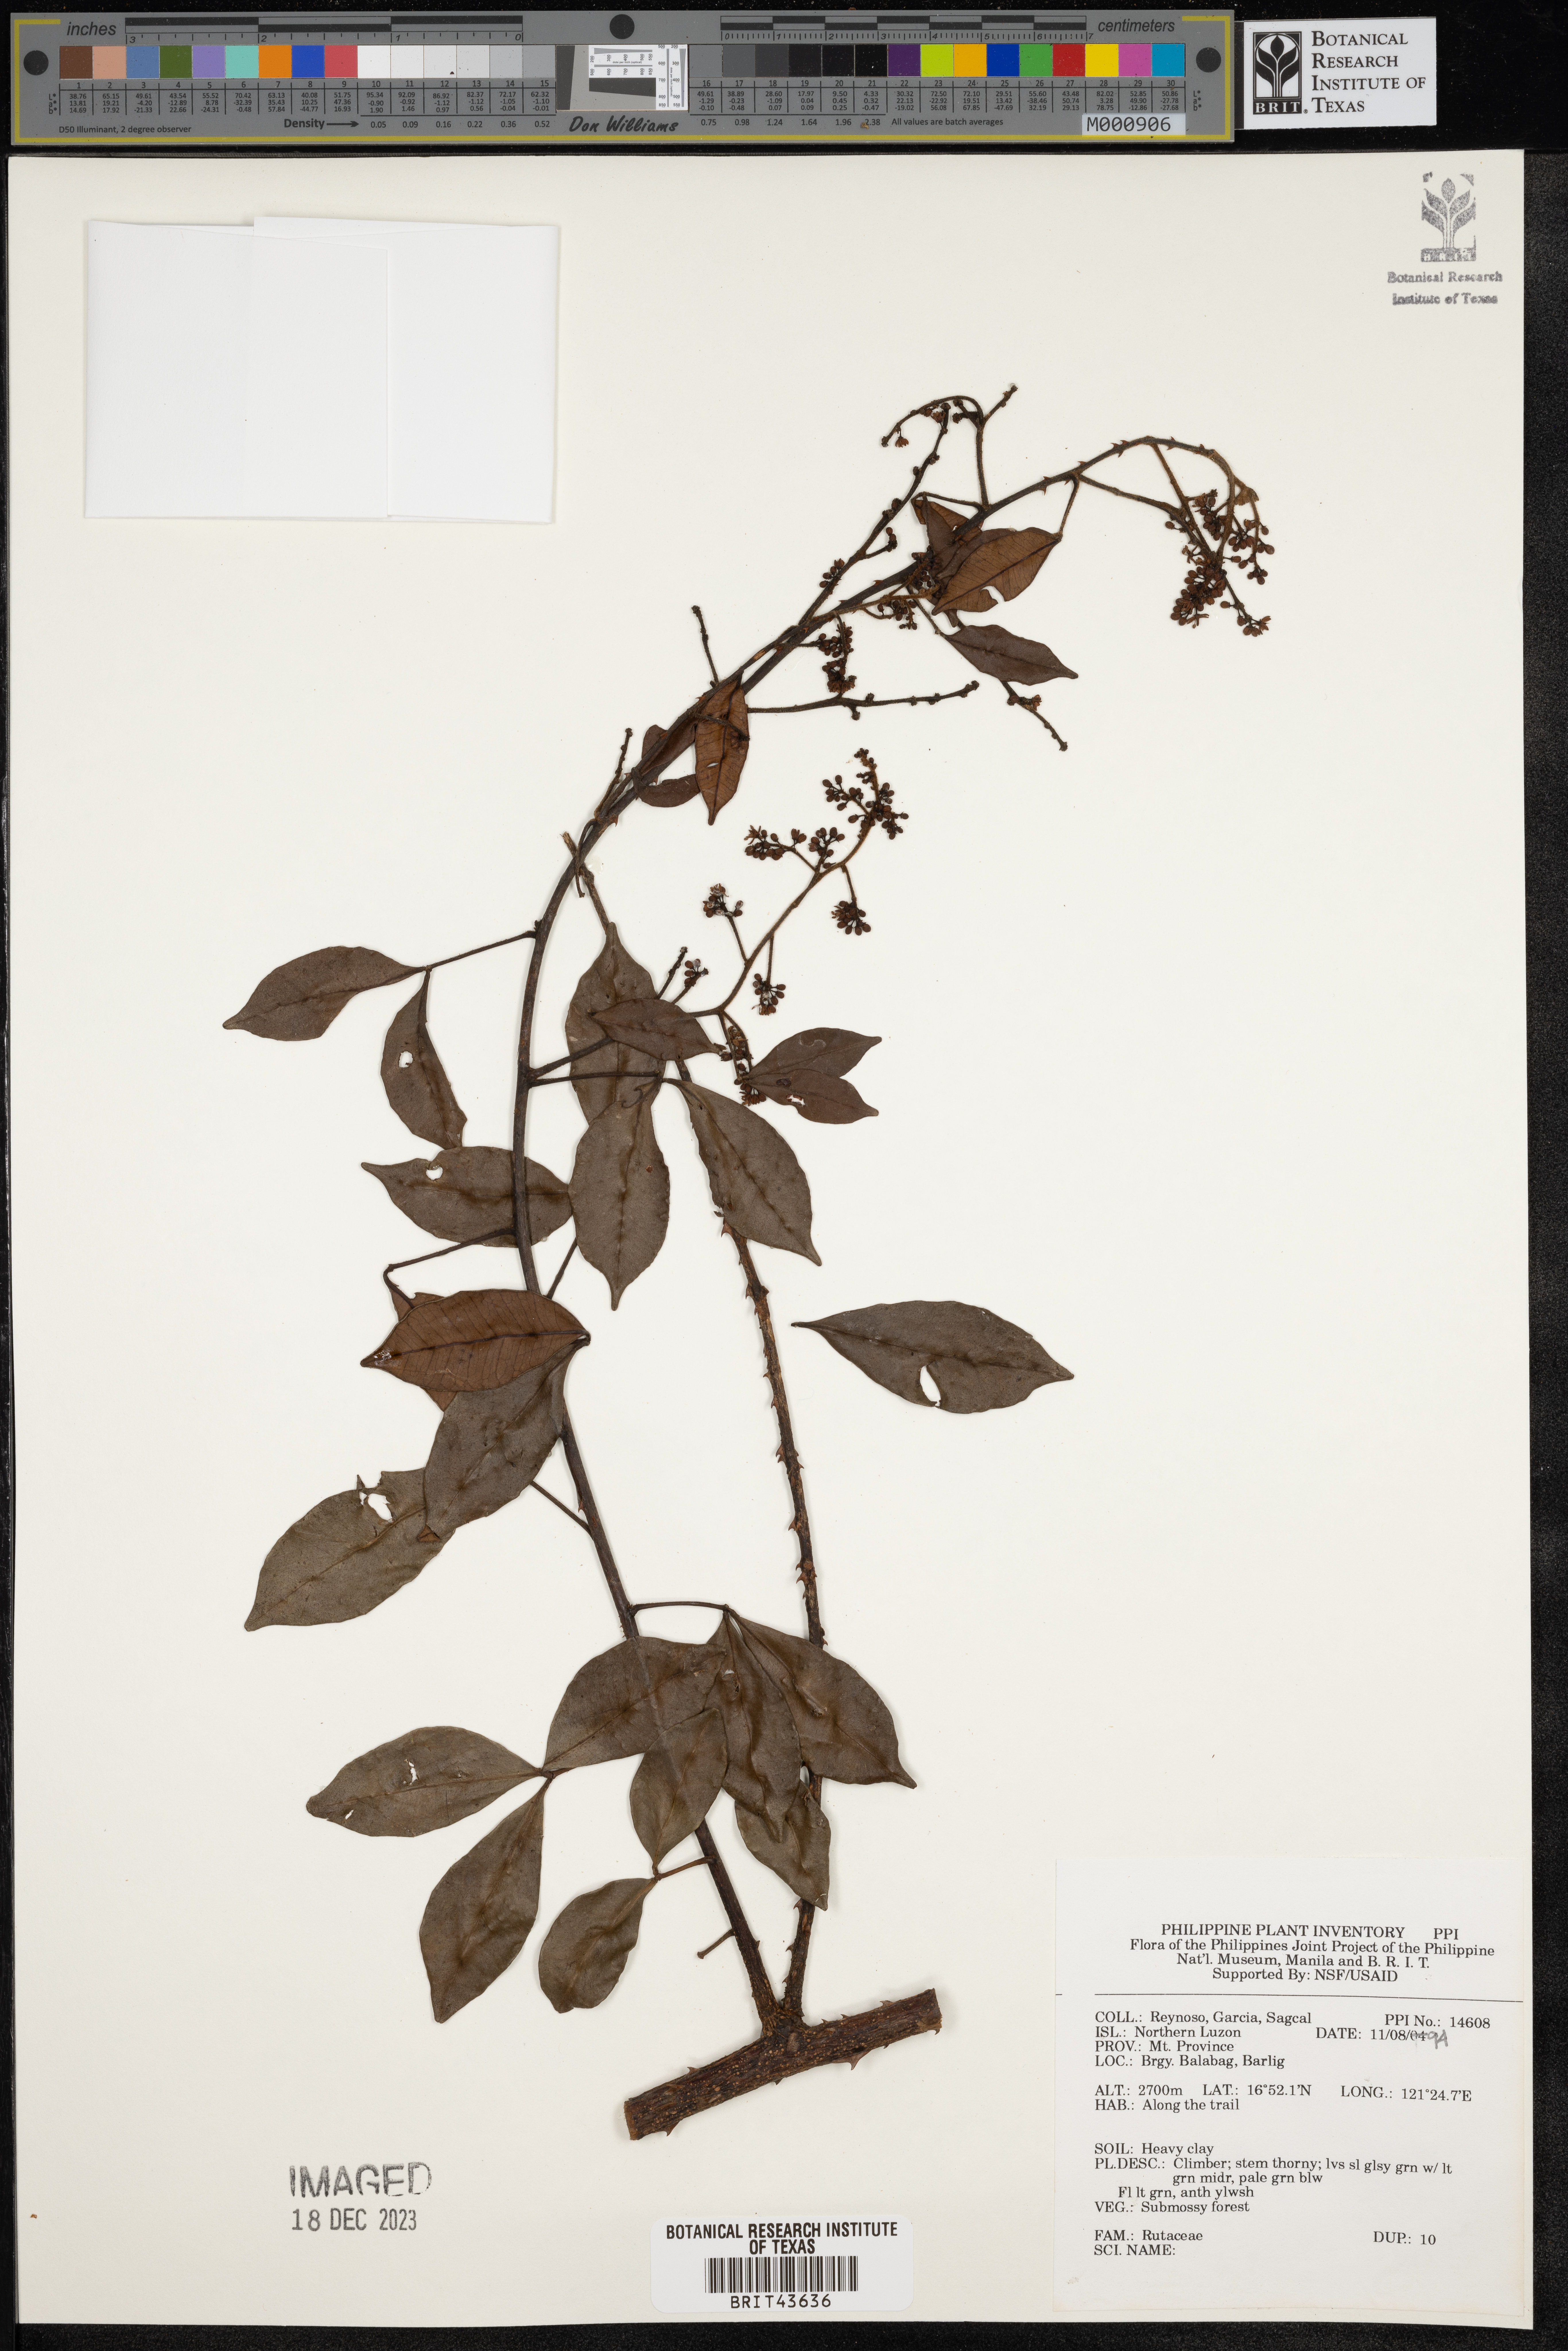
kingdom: Plantae
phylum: Tracheophyta
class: Magnoliopsida
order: Sapindales
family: Rutaceae
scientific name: Rutaceae
